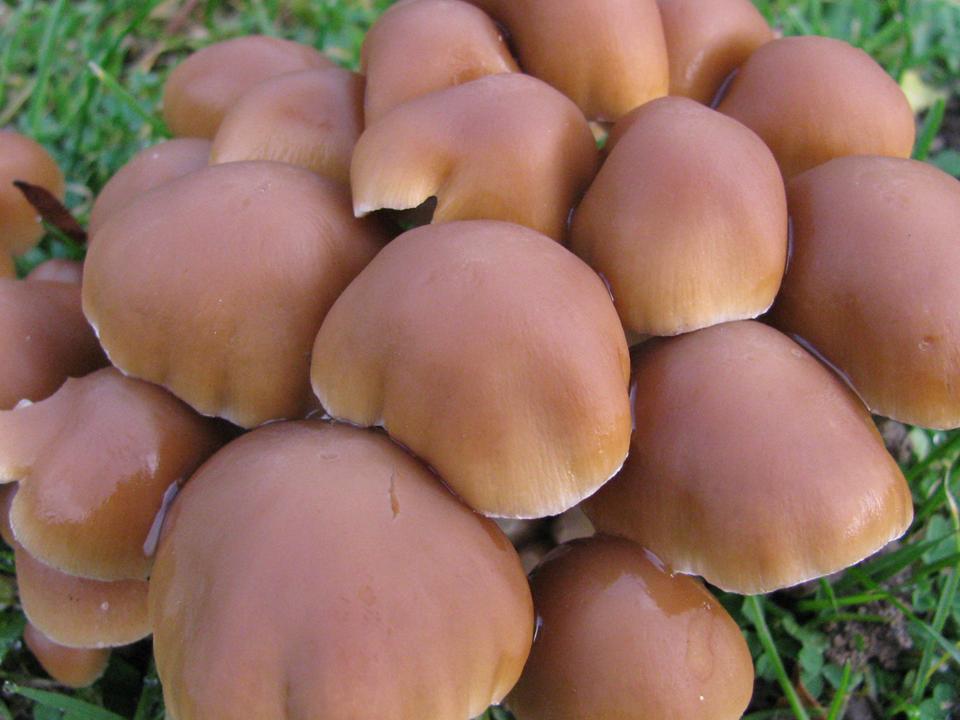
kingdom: Fungi
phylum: Basidiomycota
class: Agaricomycetes
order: Agaricales
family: Psathyrellaceae
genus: Britzelmayria
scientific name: Britzelmayria multipedata
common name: knippe-mørkhat
